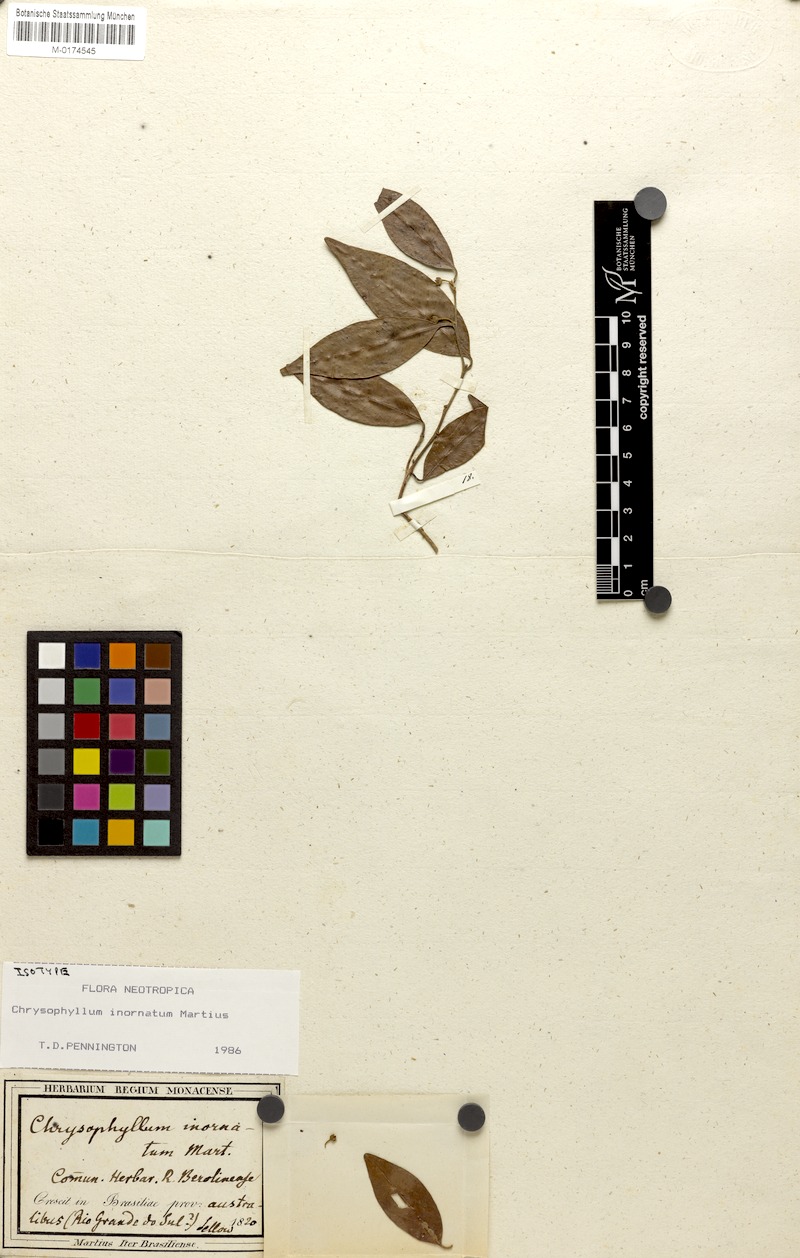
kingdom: Plantae
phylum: Tracheophyta
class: Magnoliopsida
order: Ericales
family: Sapotaceae
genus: Chrysophyllum
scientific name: Chrysophyllum inornatum
